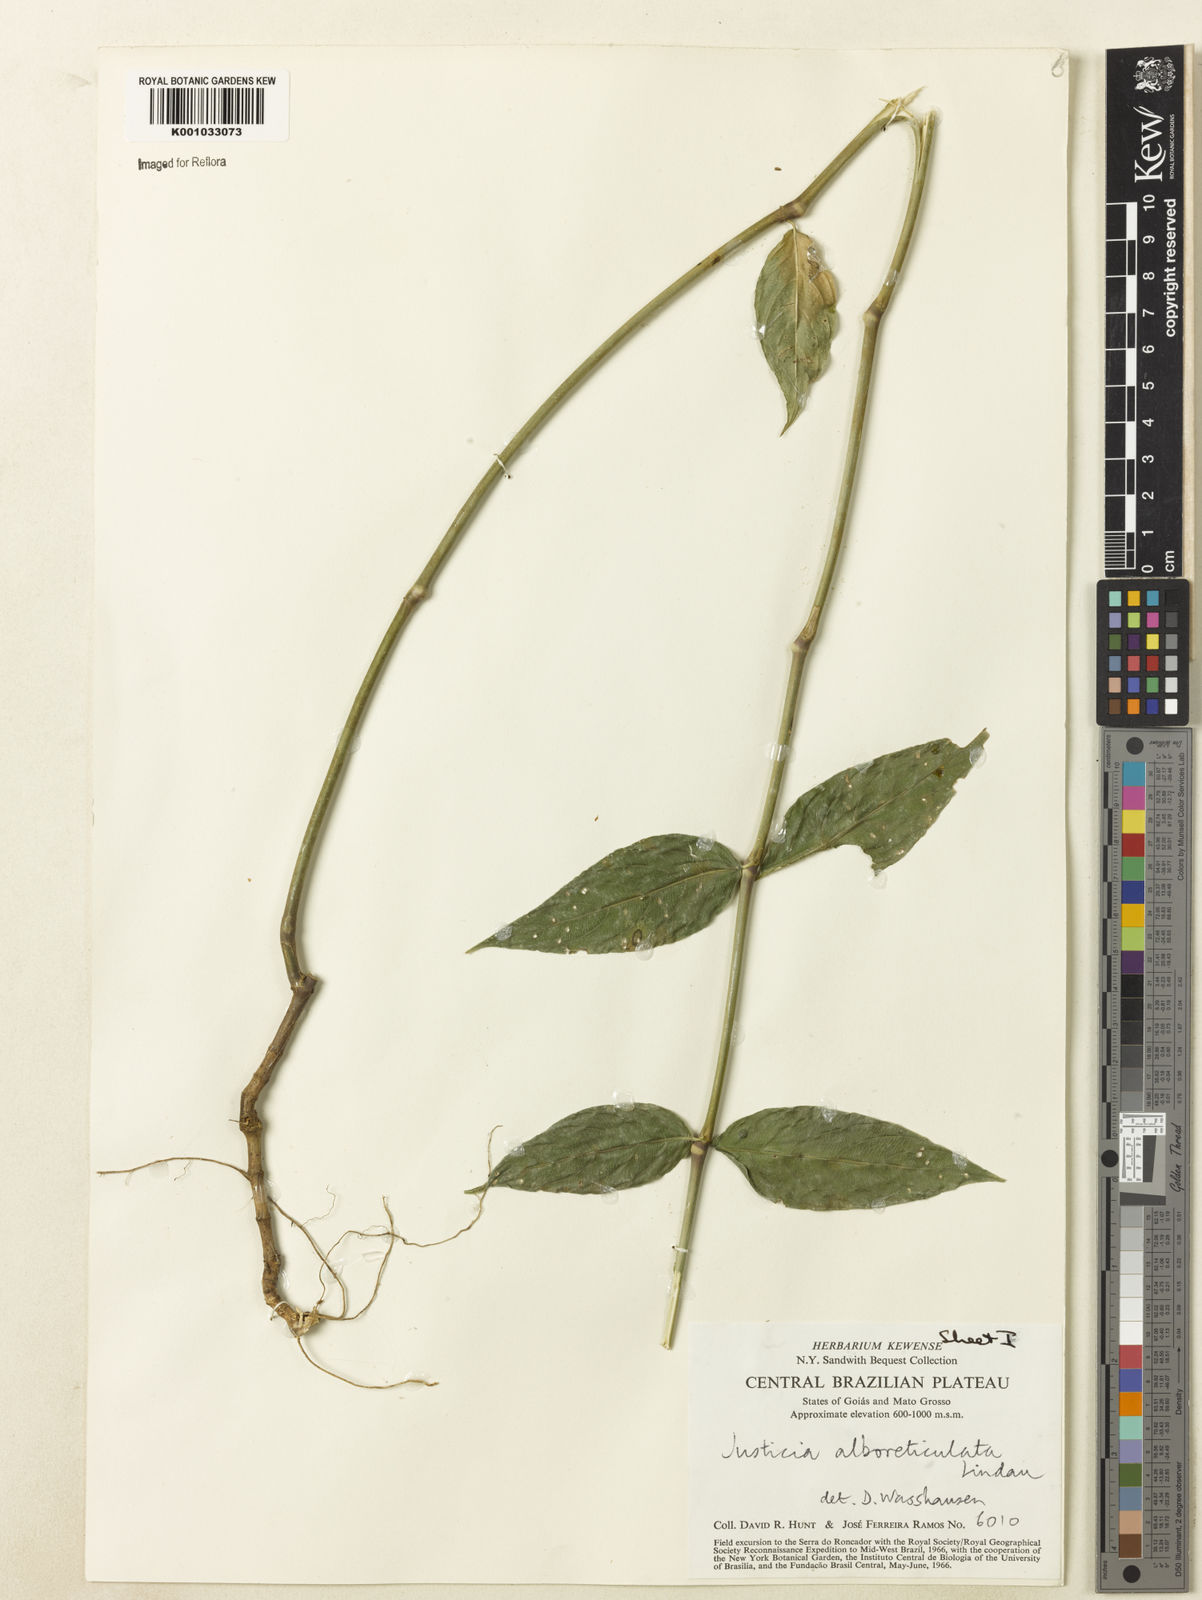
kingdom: Plantae
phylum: Tracheophyta
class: Magnoliopsida
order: Lamiales
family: Acanthaceae
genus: Justicia
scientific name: Justicia asclepiadea
